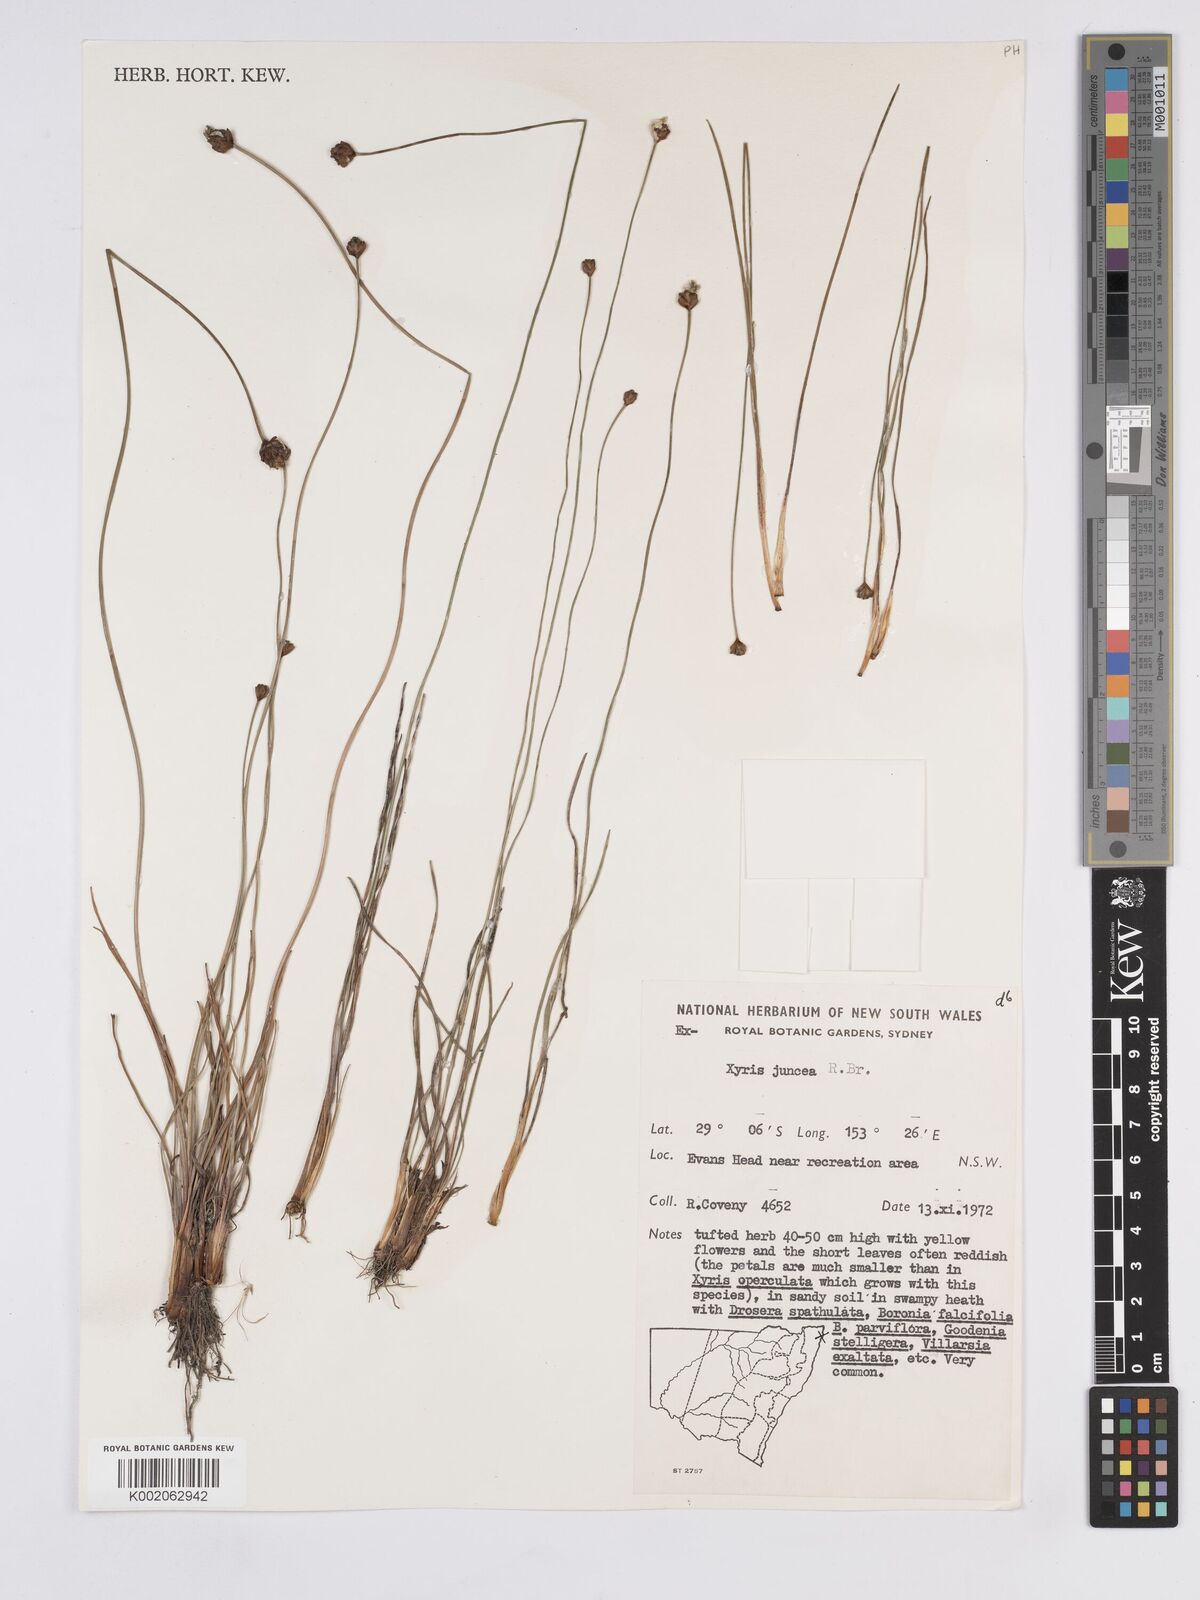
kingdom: Plantae
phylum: Tracheophyta
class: Liliopsida
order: Poales
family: Xyridaceae
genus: Xyris
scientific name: Xyris juncea
